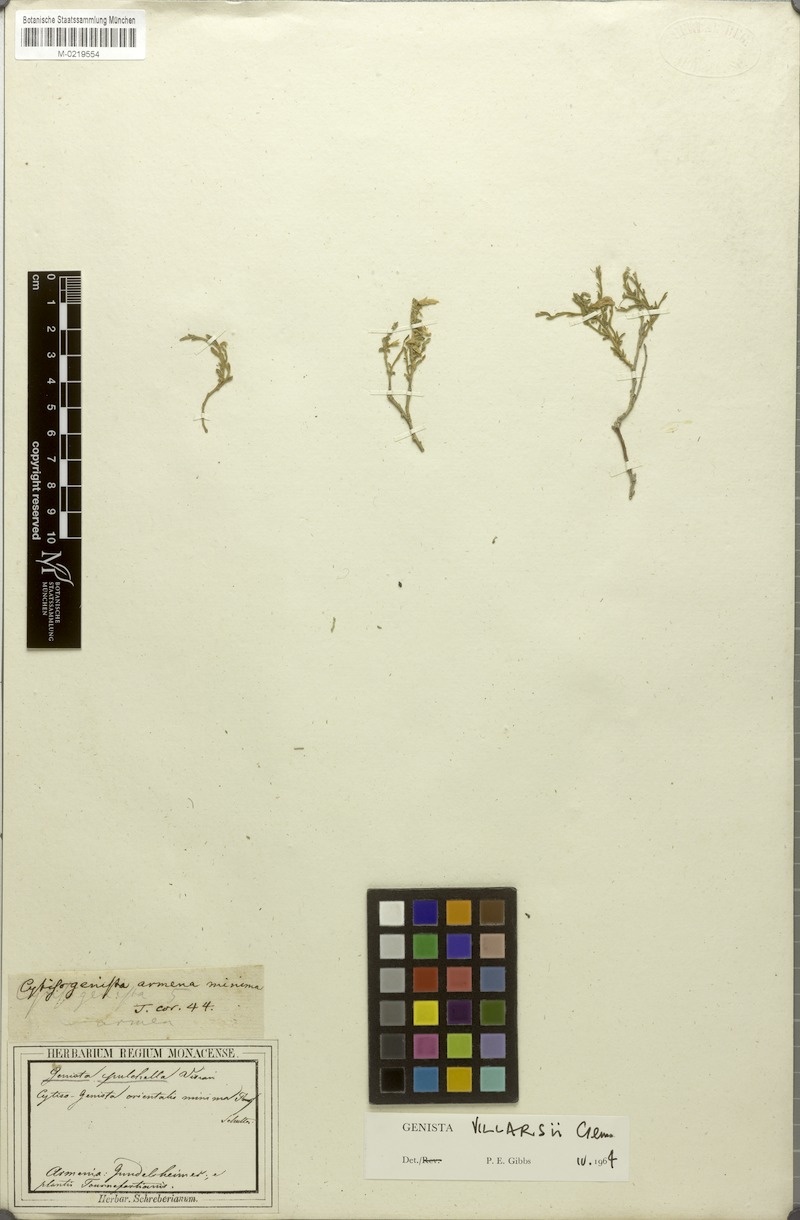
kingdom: Plantae
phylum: Tracheophyta
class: Magnoliopsida
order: Fabales
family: Fabaceae
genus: Genista
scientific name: Genista pulchella
